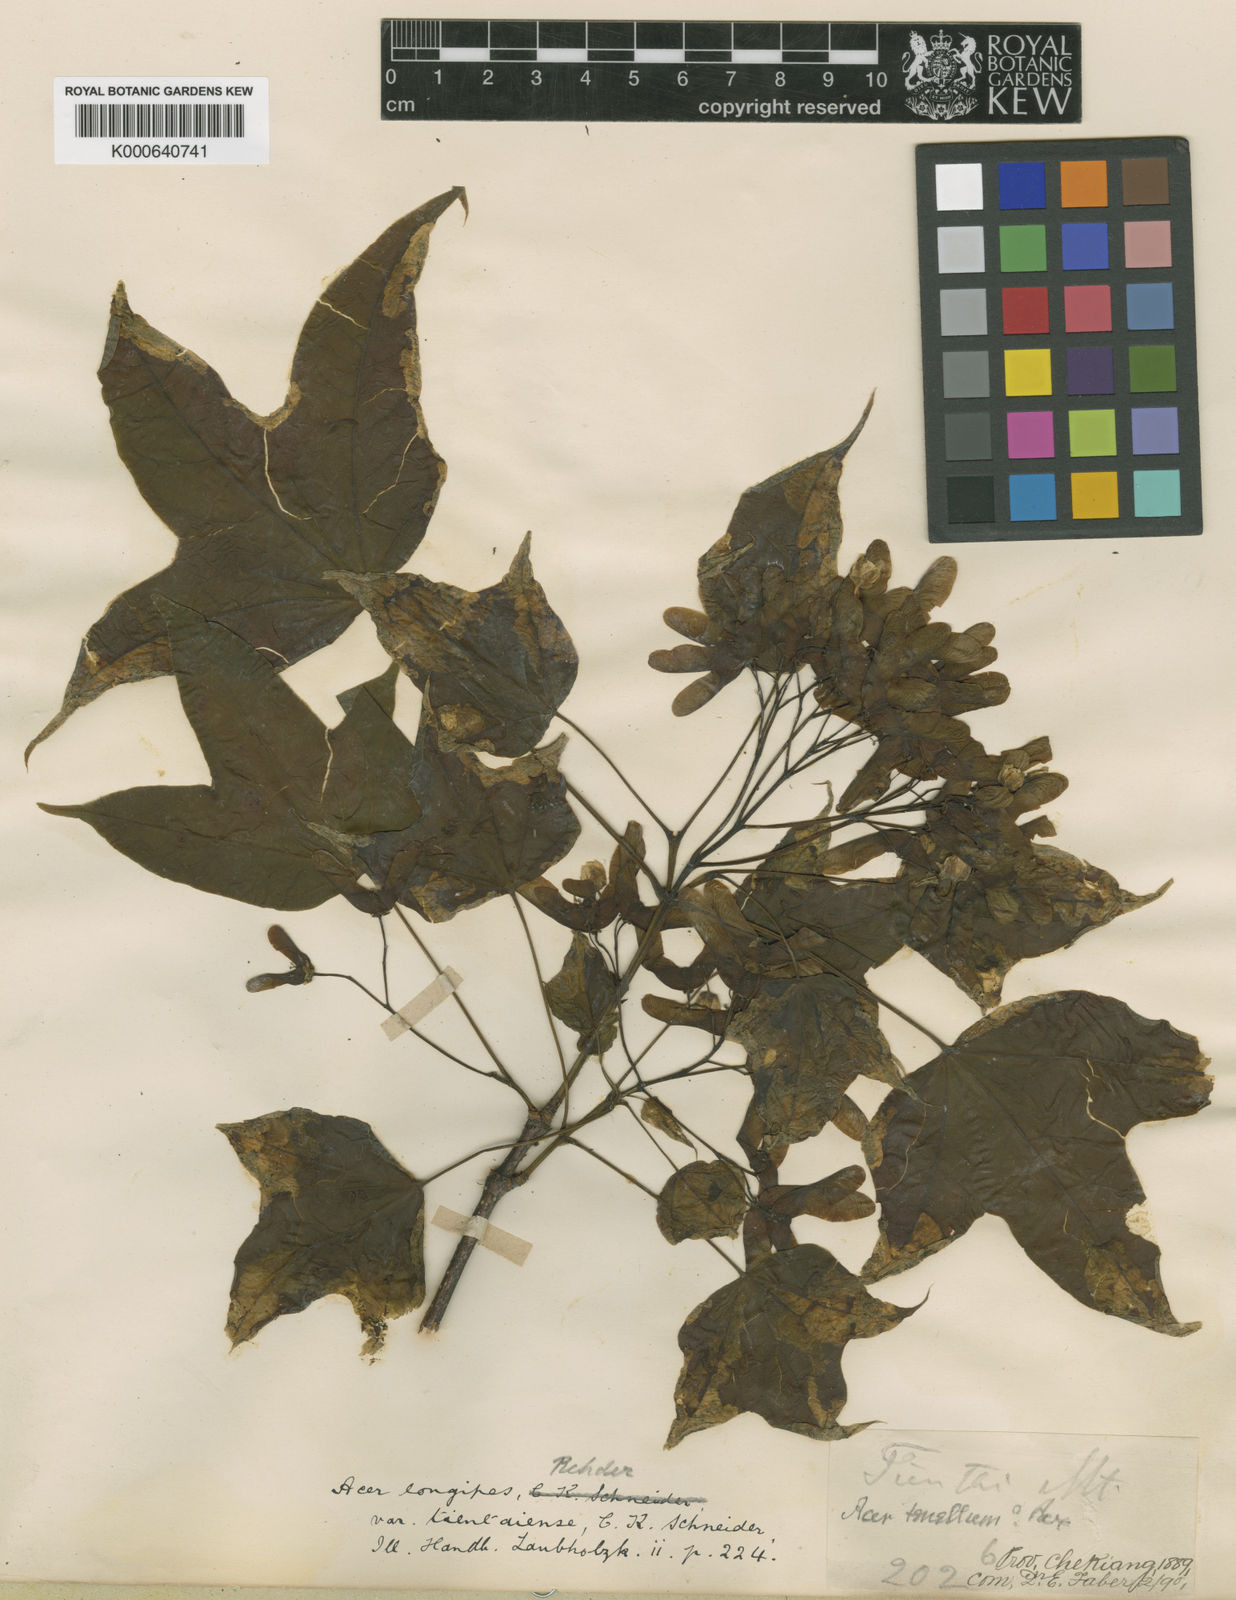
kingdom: Plantae
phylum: Tracheophyta
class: Magnoliopsida
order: Sapindales
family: Sapindaceae
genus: Acer
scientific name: Acer amplum
